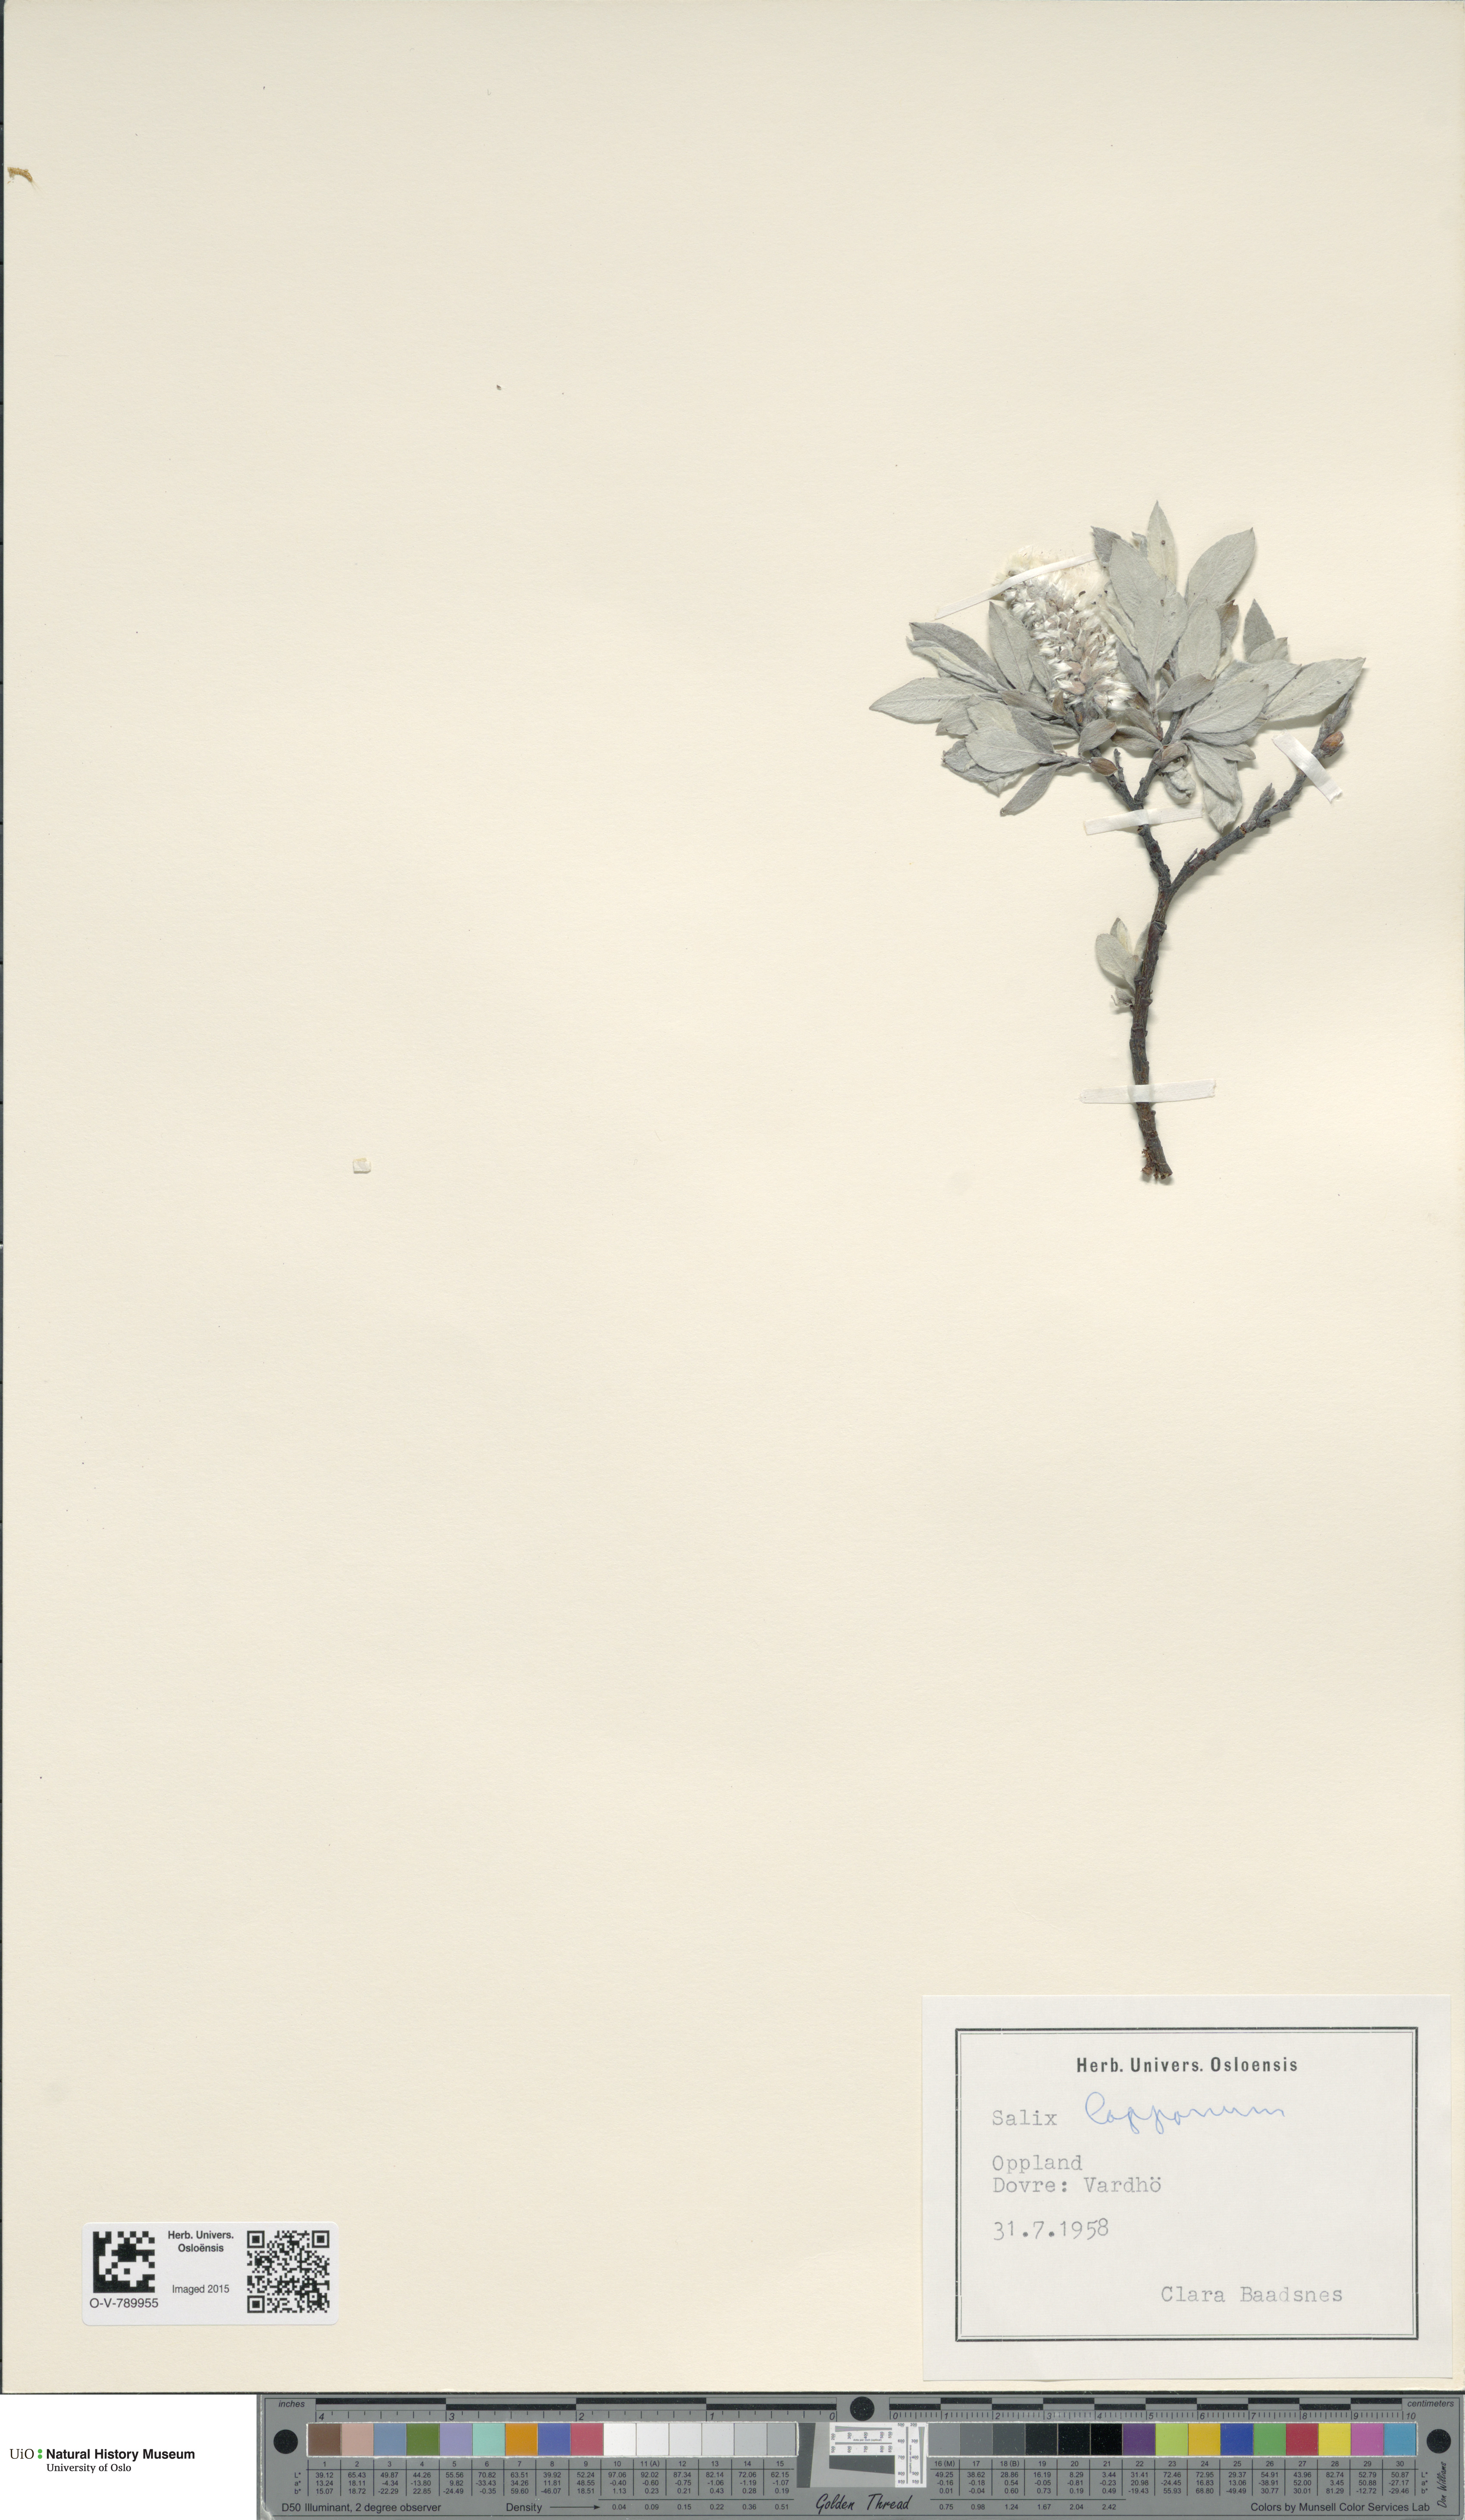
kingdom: Plantae
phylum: Tracheophyta
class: Magnoliopsida
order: Malpighiales
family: Salicaceae
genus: Salix
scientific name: Salix lapponum
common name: Downy willow
